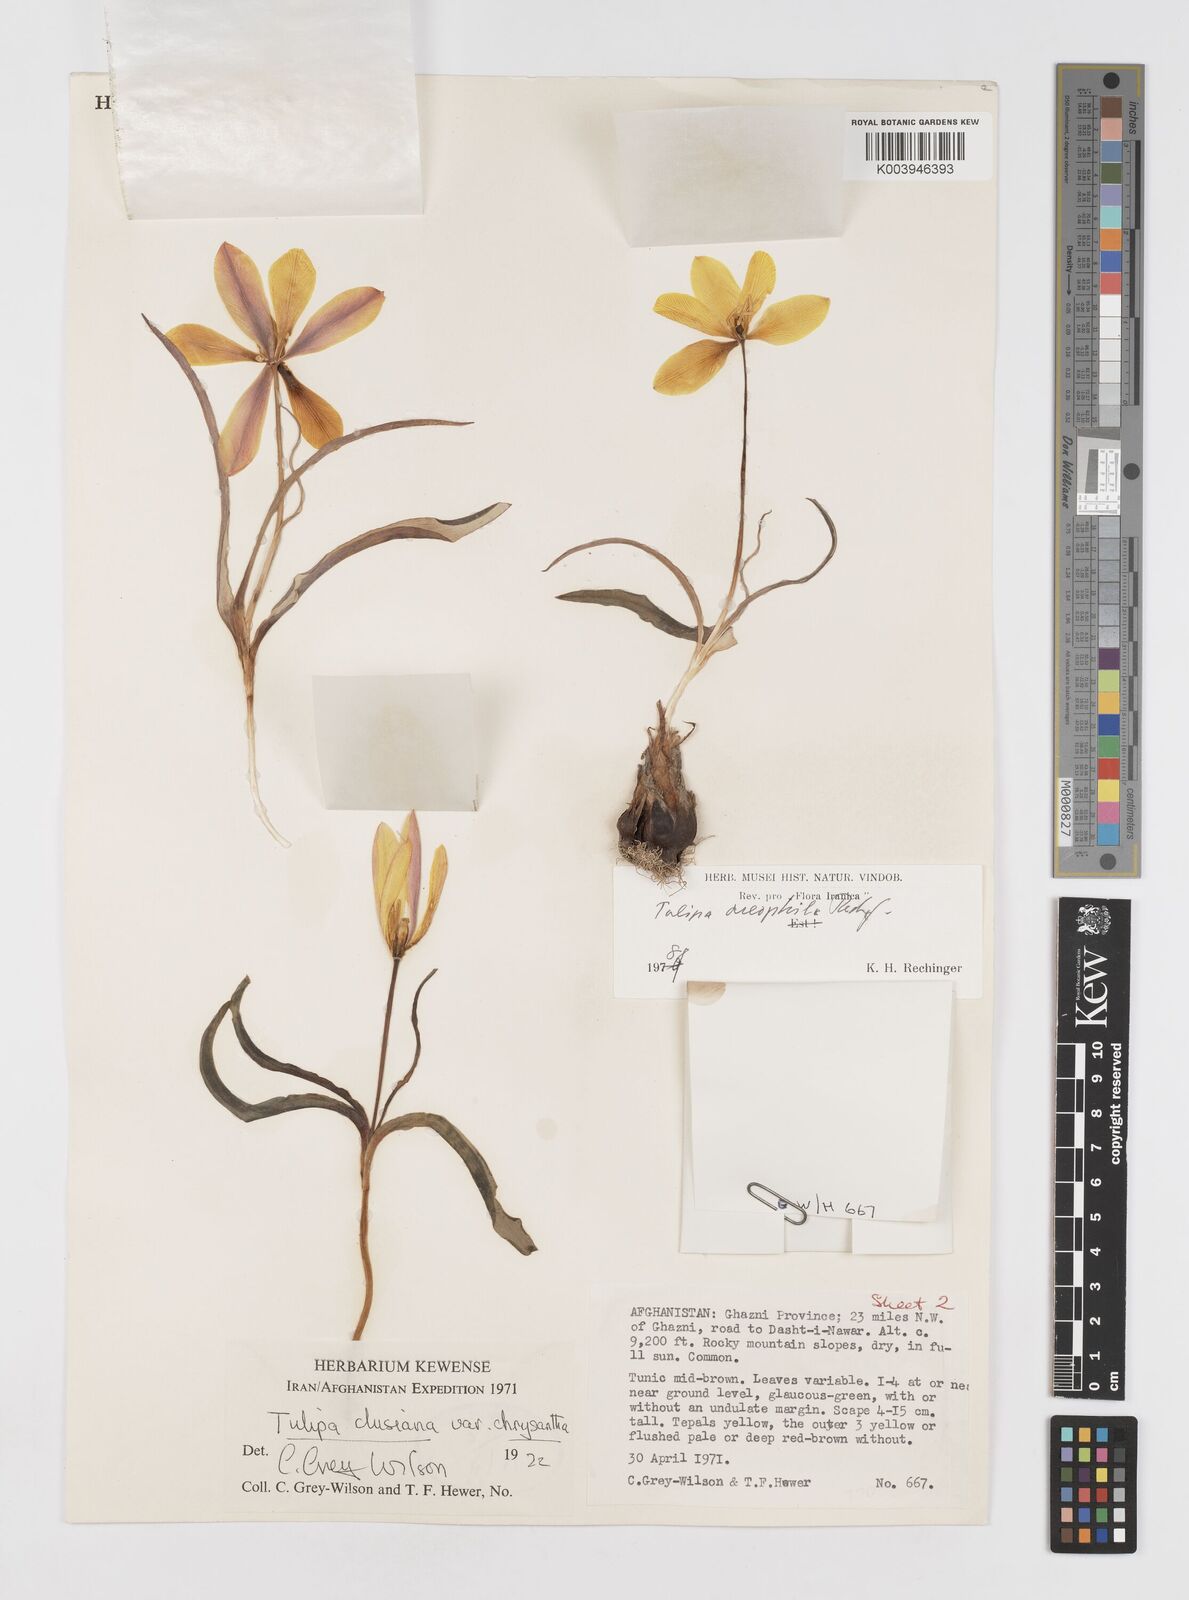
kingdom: Plantae
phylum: Tracheophyta
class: Liliopsida
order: Liliales
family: Liliaceae
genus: Tulipa
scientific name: Tulipa clusiana
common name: Lady tulip
